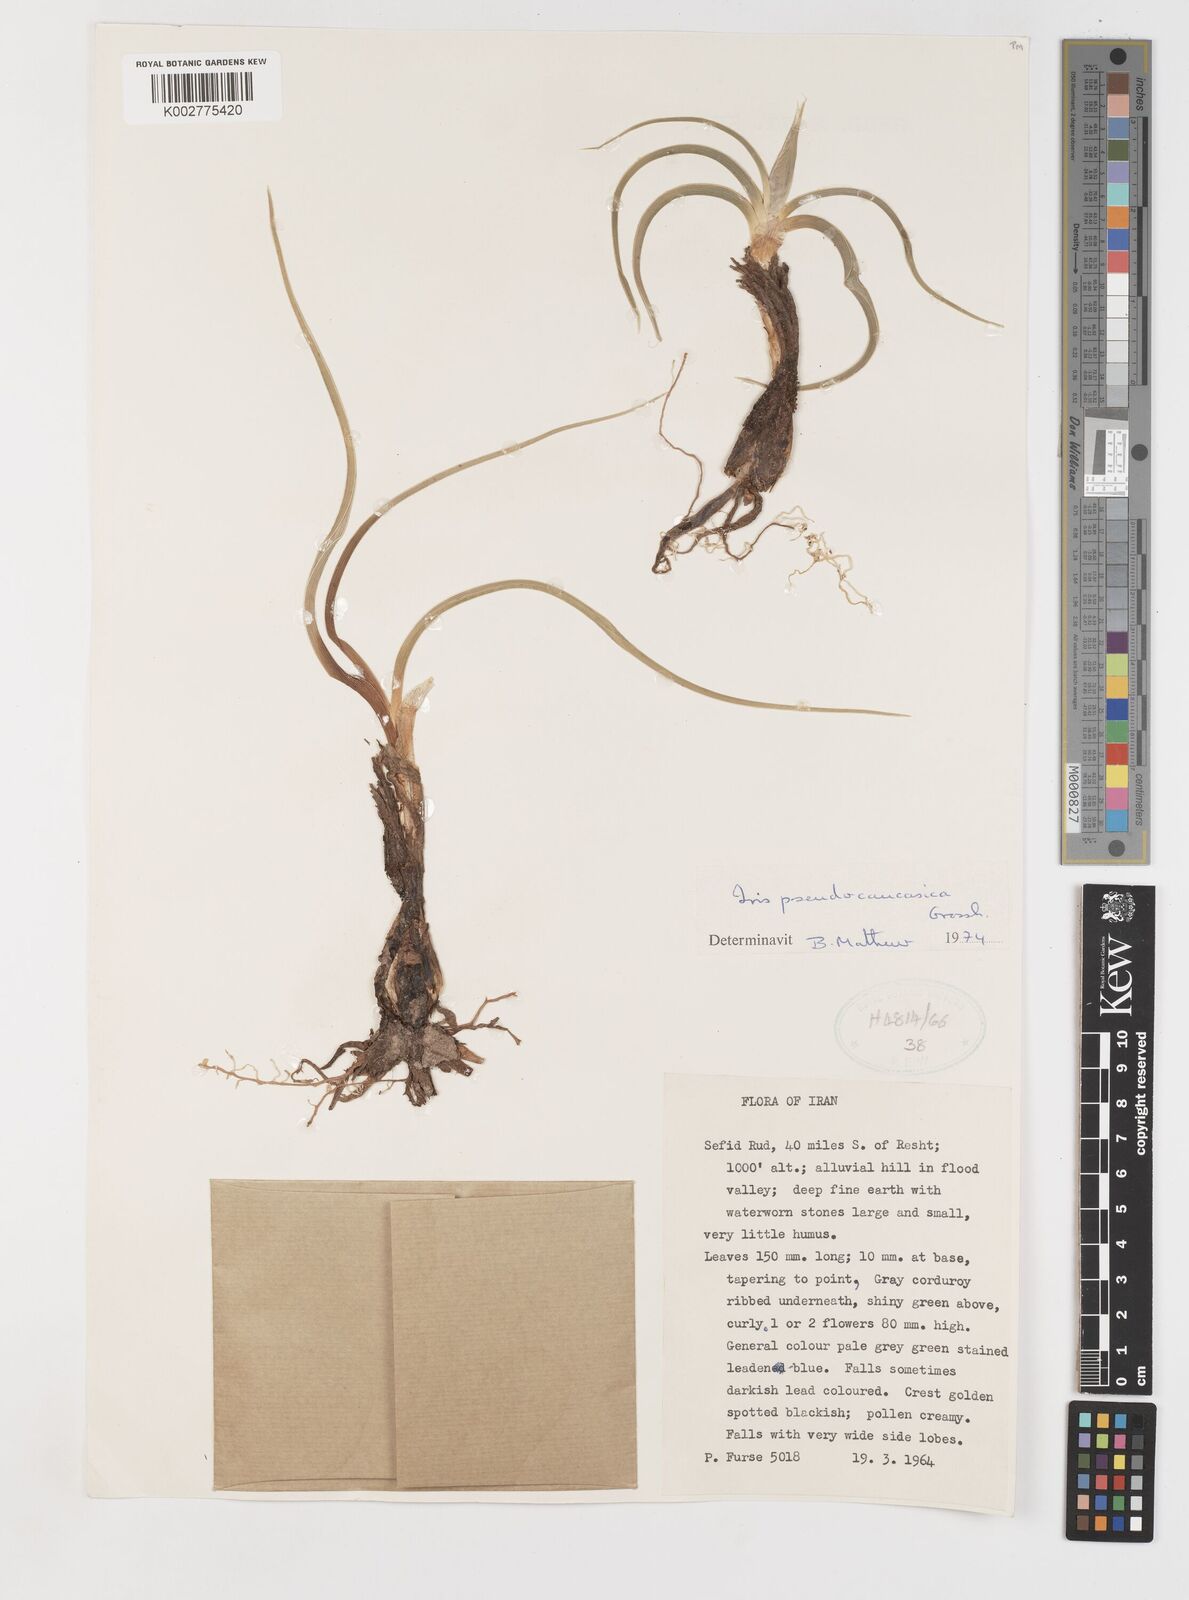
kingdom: Plantae
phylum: Tracheophyta
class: Liliopsida
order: Asparagales
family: Iridaceae
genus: Iris
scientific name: Iris pseudocaucasica
